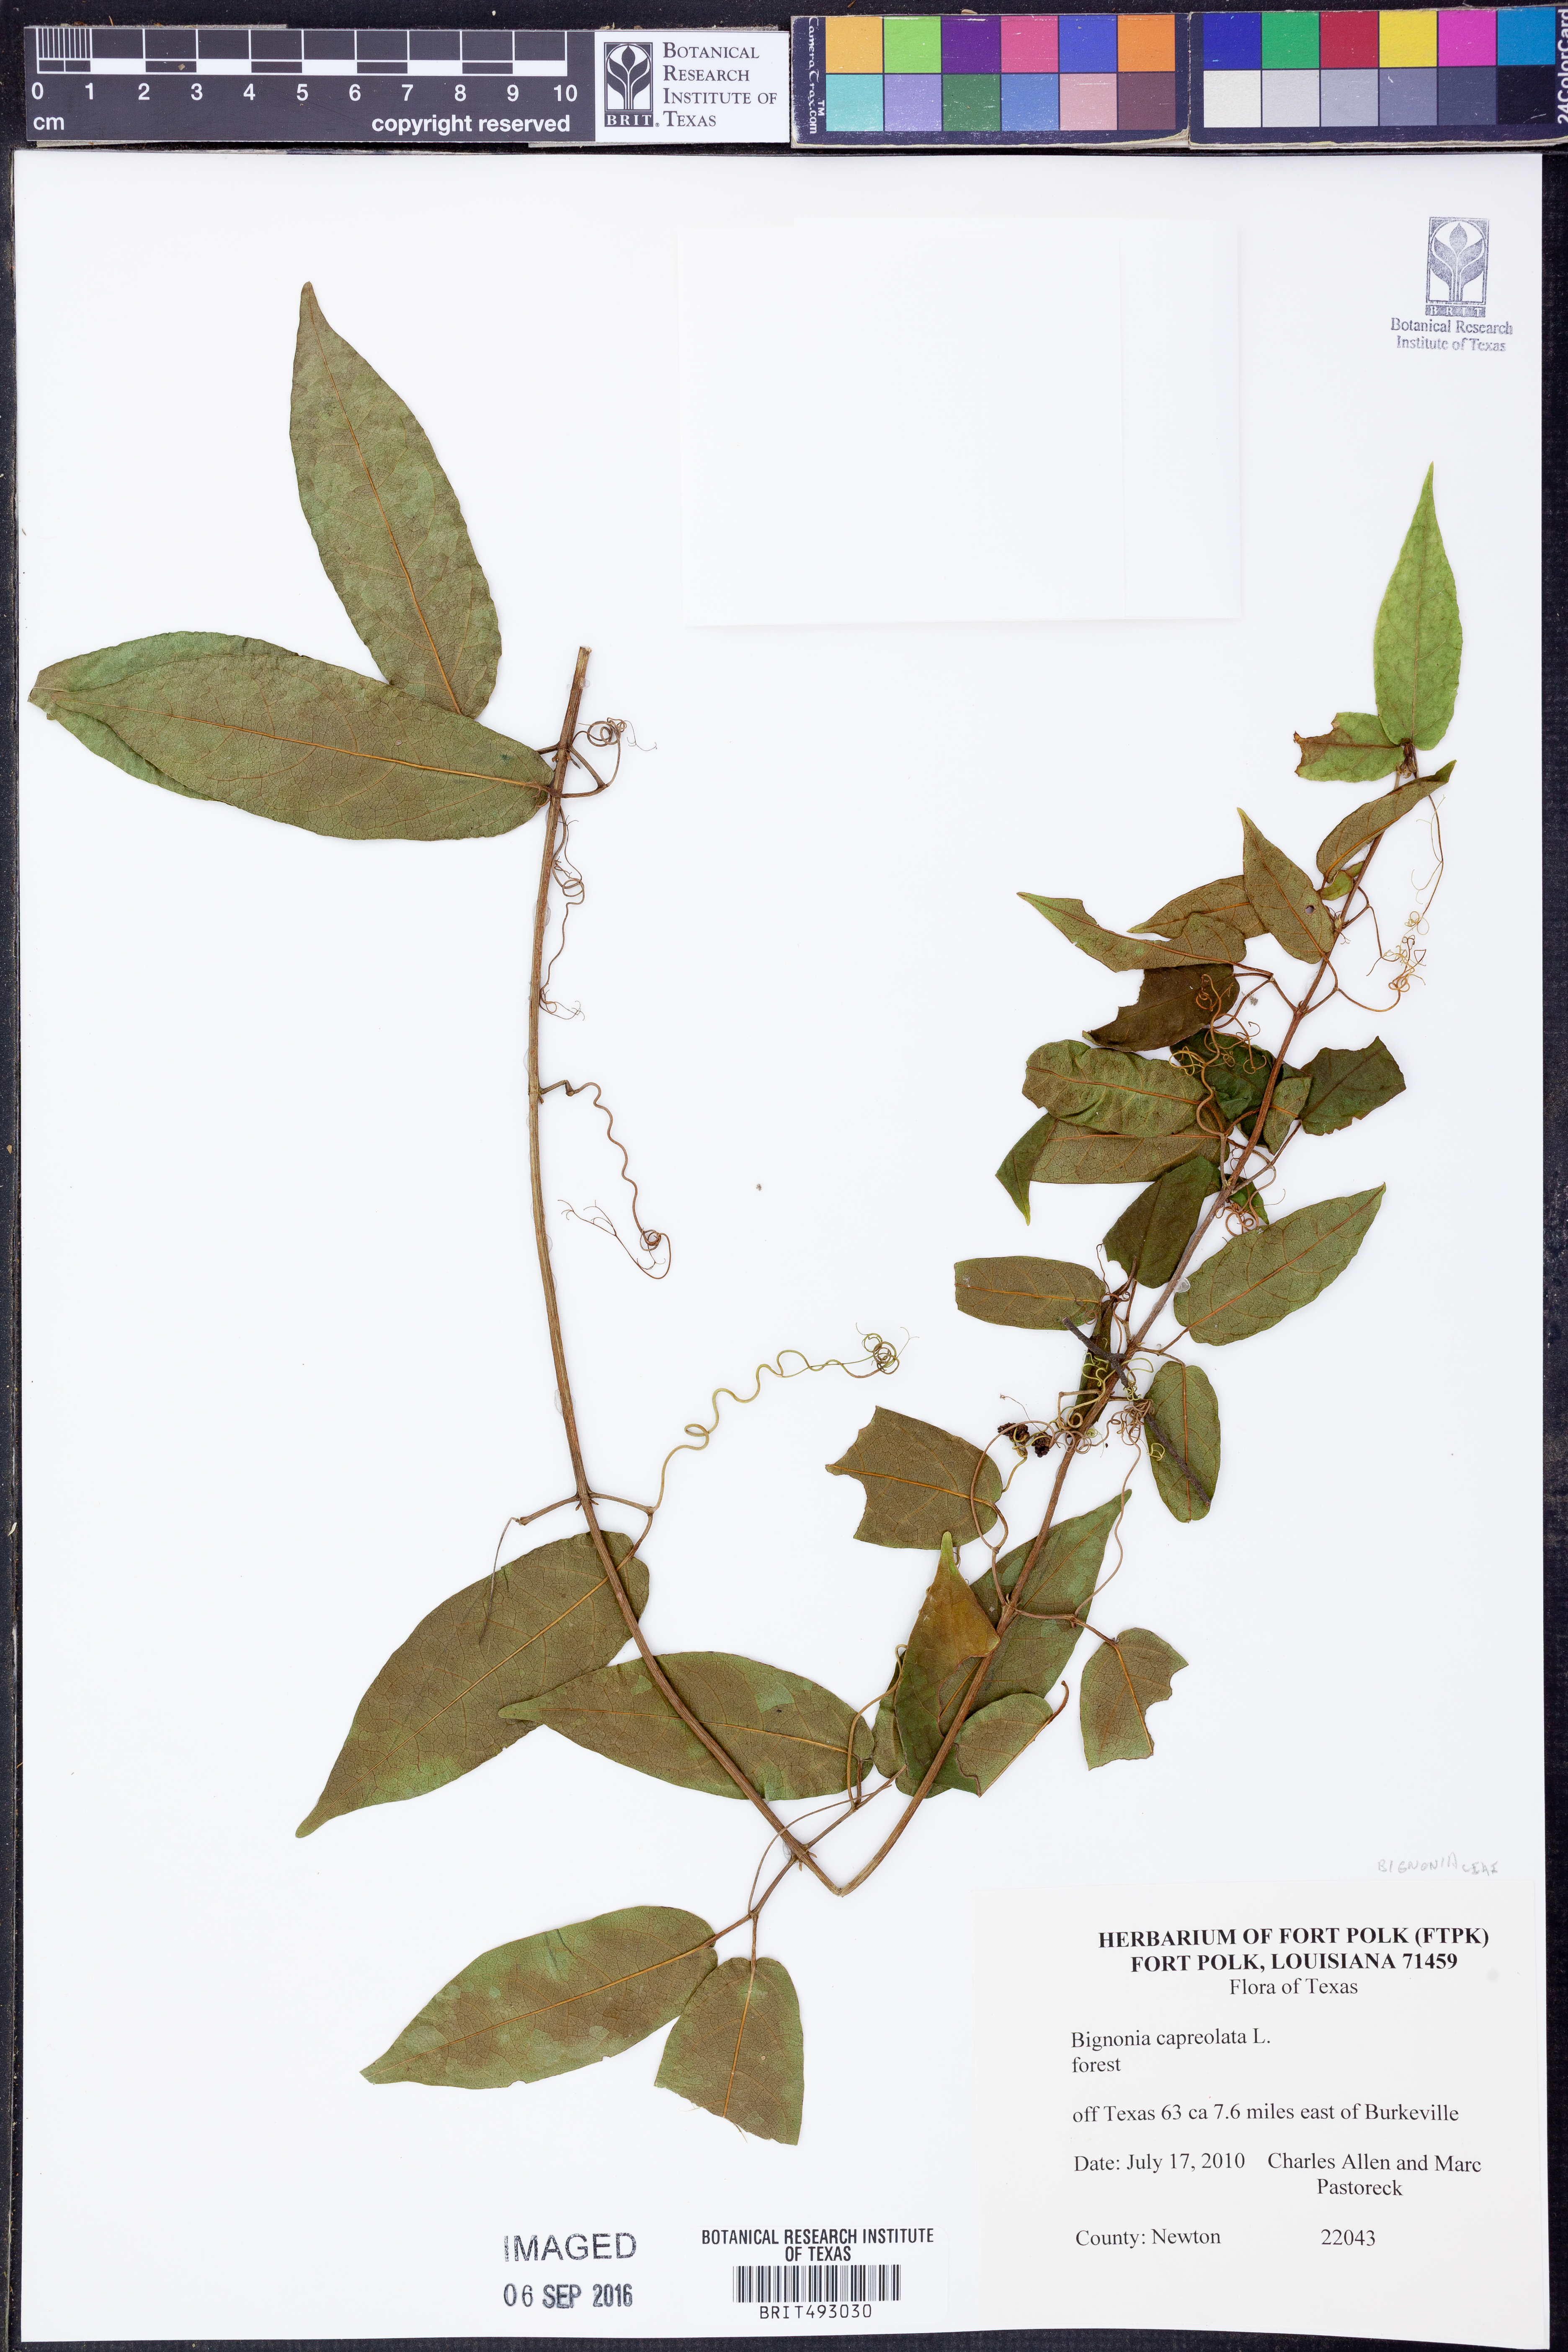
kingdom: Plantae
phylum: Tracheophyta
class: Magnoliopsida
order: Lamiales
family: Bignoniaceae
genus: Bignonia
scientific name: Bignonia capreolata
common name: Crossvine
